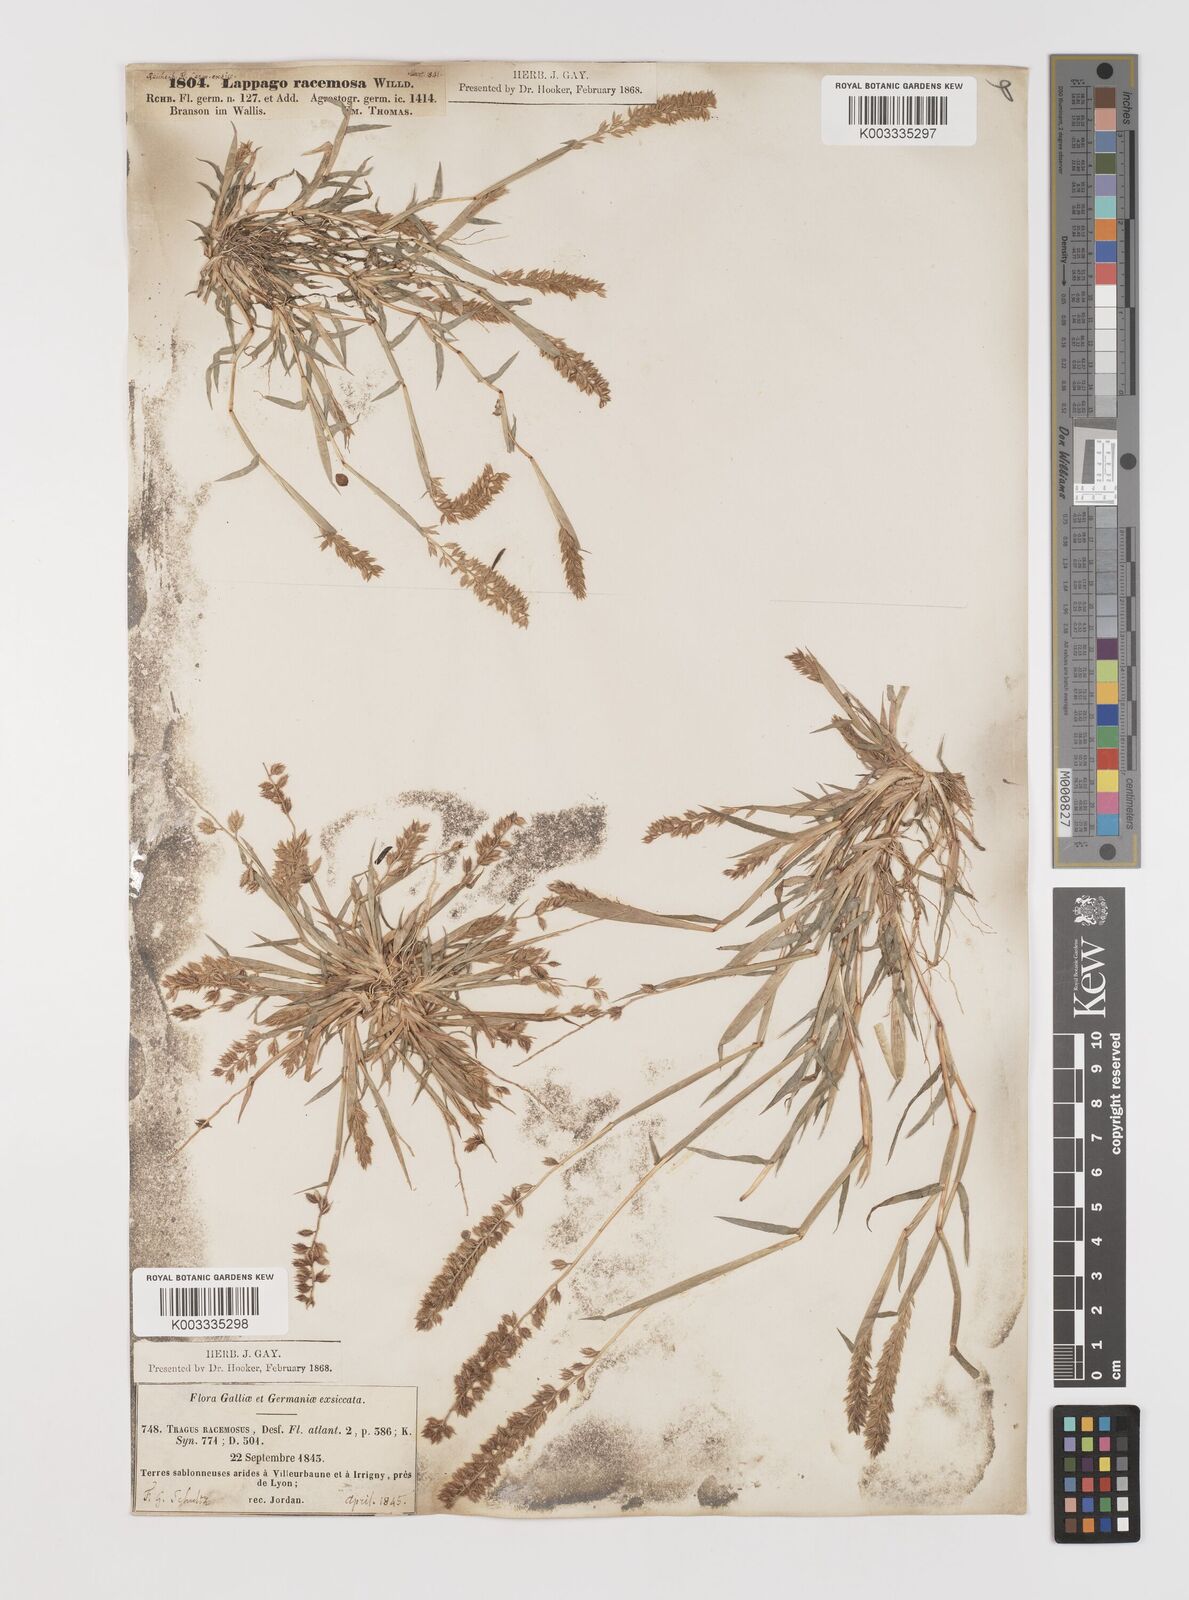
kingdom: Plantae
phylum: Tracheophyta
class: Liliopsida
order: Poales
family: Poaceae
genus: Tragus
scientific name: Tragus racemosus
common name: European bur-grass
